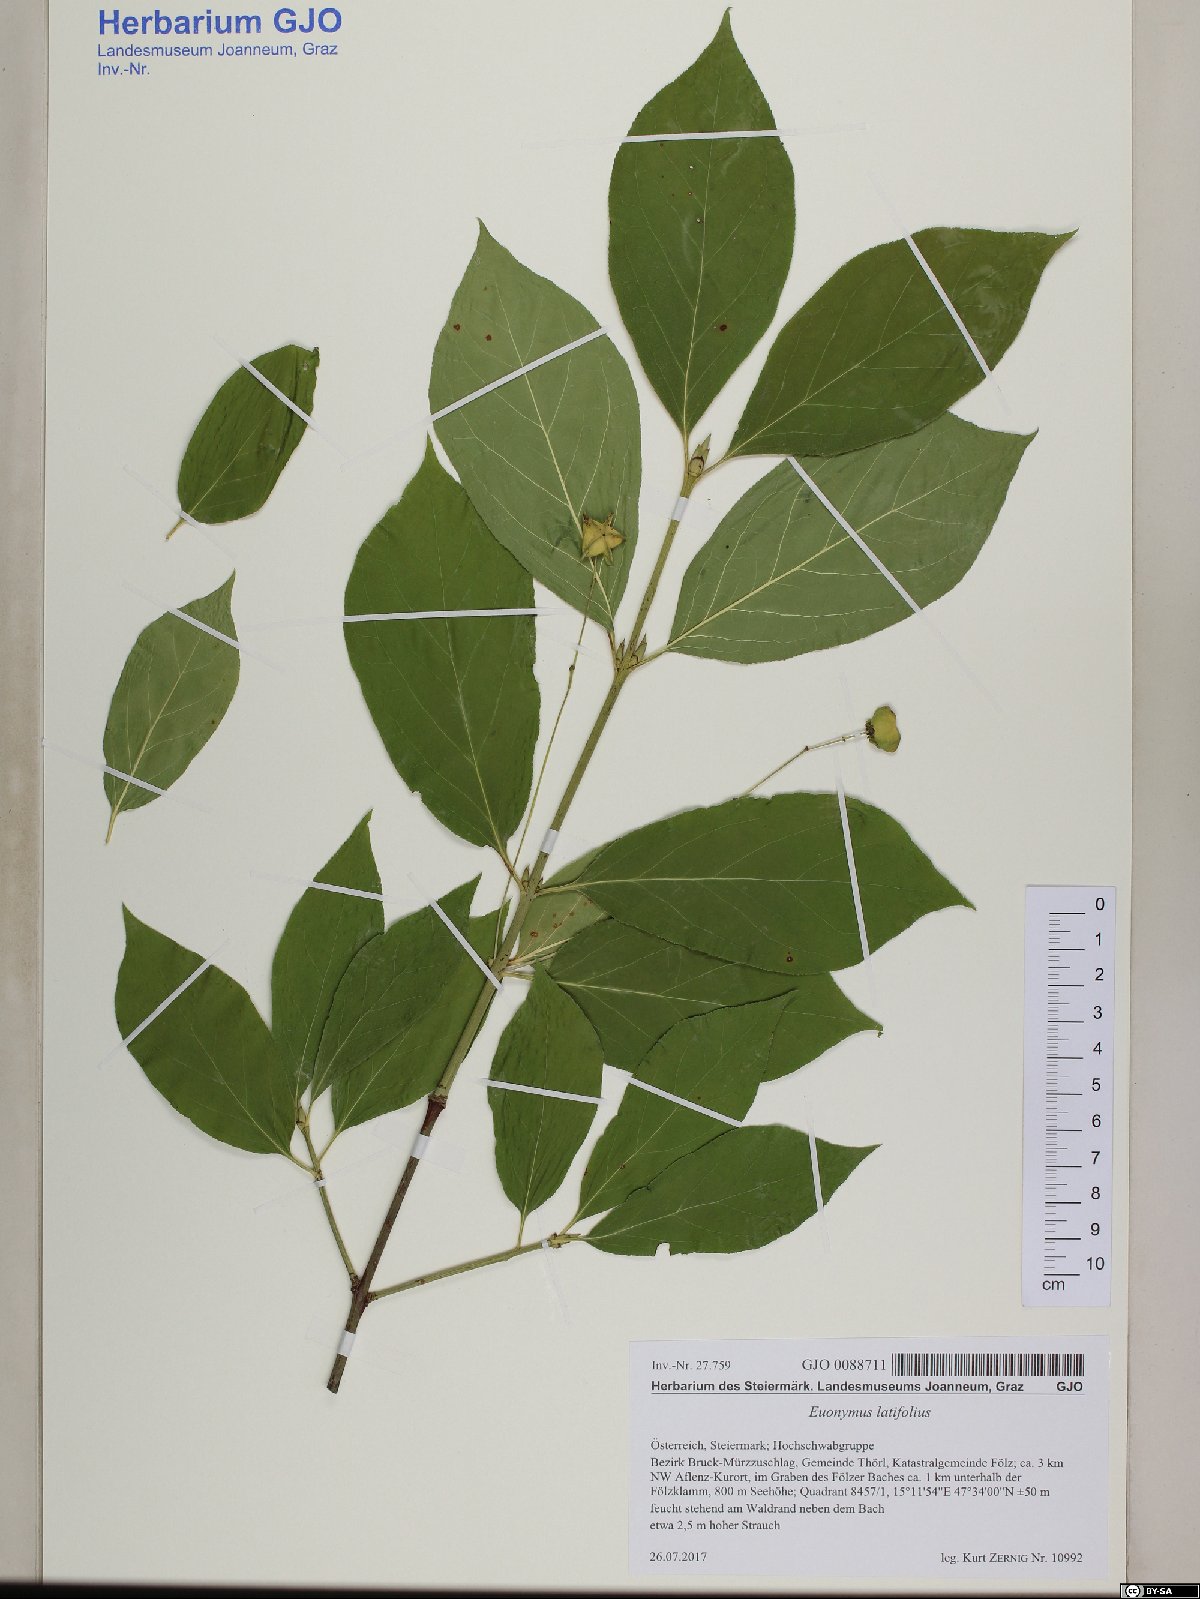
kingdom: Plantae
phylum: Tracheophyta
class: Magnoliopsida
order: Celastrales
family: Celastraceae
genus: Euonymus
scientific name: Euonymus latifolius
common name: Large-leaved spindle
